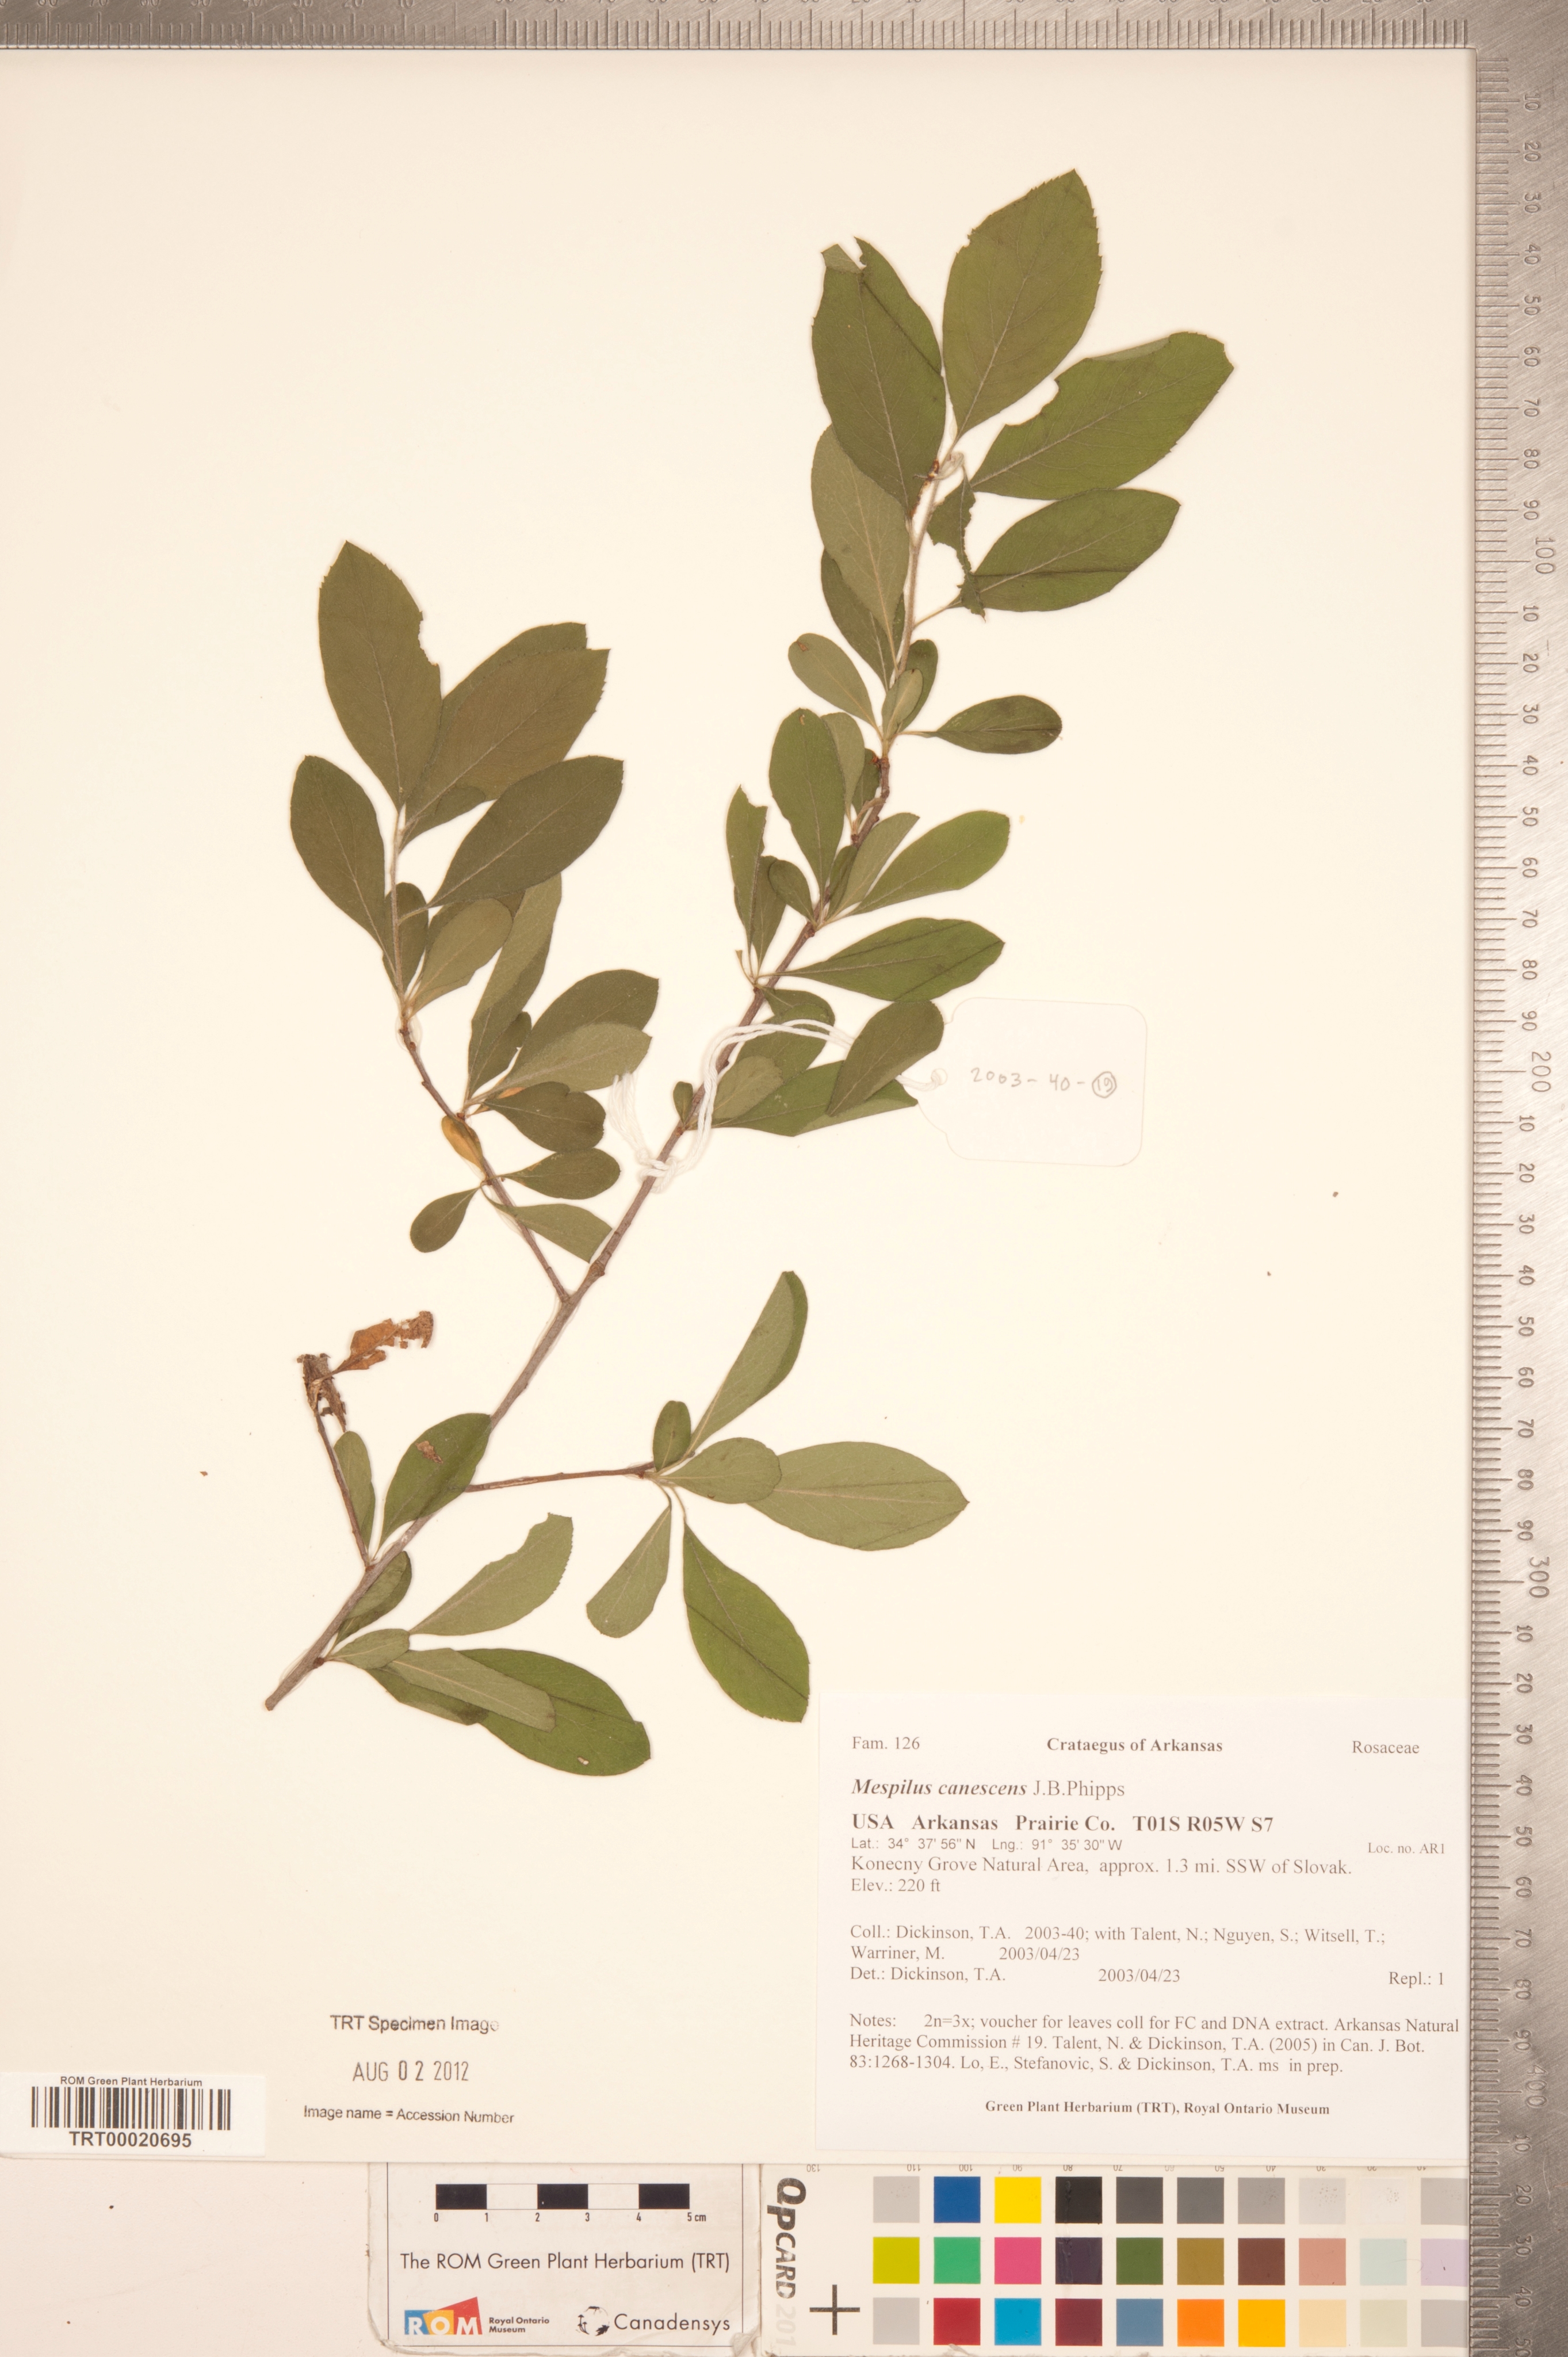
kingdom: Plantae
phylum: Tracheophyta
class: Magnoliopsida
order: Rosales
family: Rosaceae
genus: Crataemespilus
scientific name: Crataemespilus canescens
